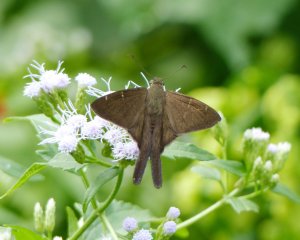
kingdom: Animalia
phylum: Arthropoda
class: Insecta
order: Lepidoptera
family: Hesperiidae
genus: Urbanus
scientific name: Urbanus procne
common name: Brown Longtail
